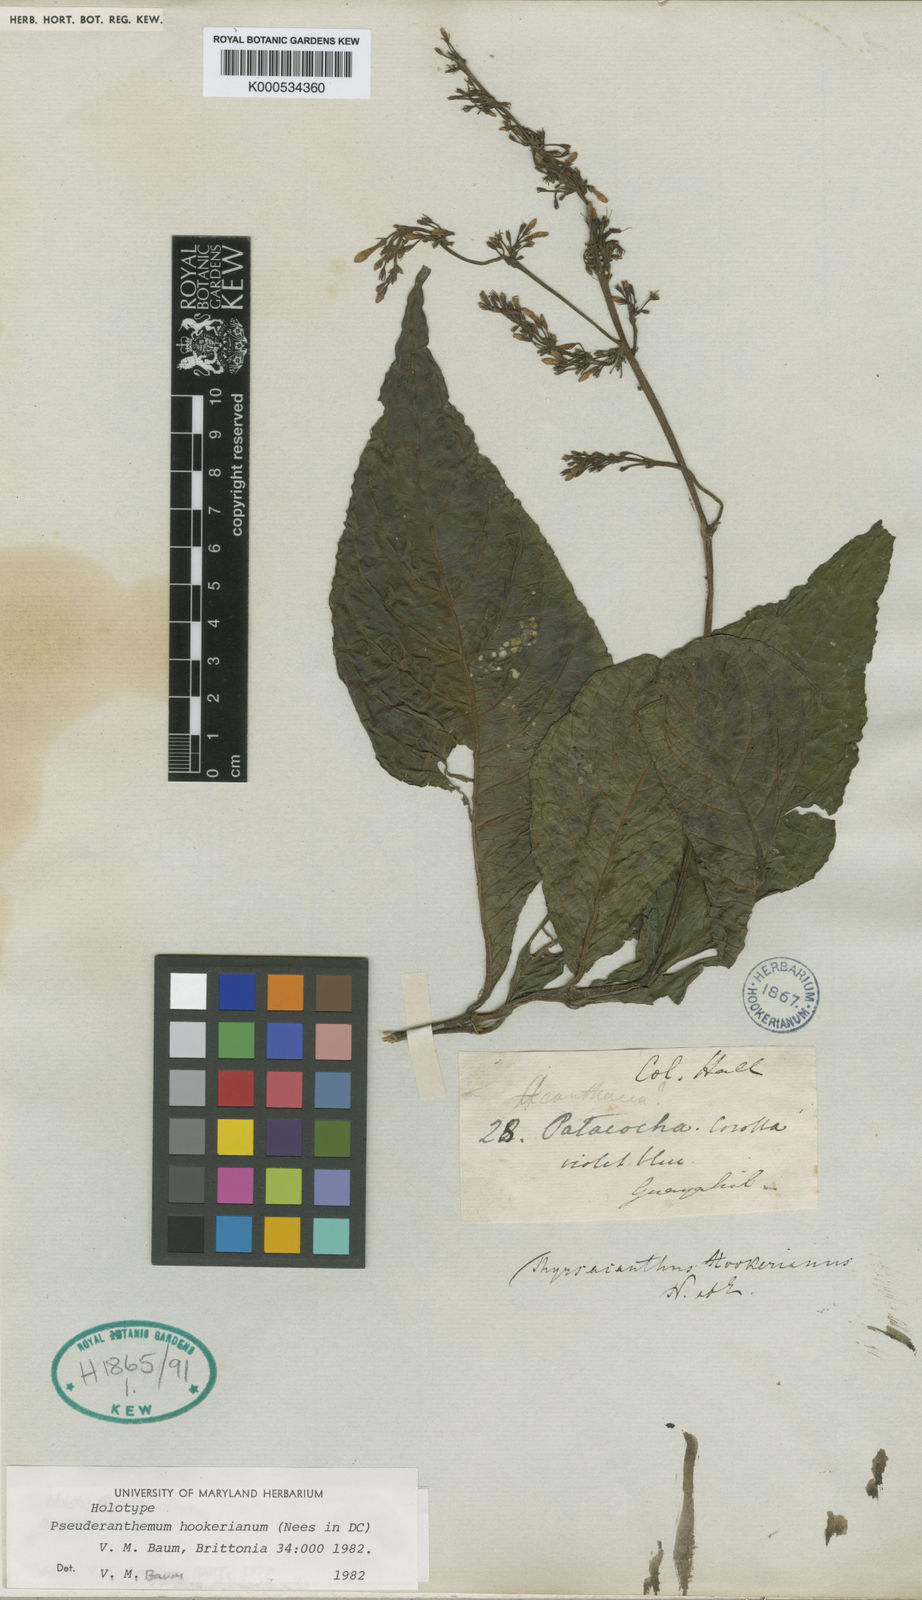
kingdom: Plantae
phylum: Tracheophyta
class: Magnoliopsida
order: Lamiales
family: Acanthaceae
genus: Pseuderanthemum
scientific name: Pseuderanthemum leptorhachis
